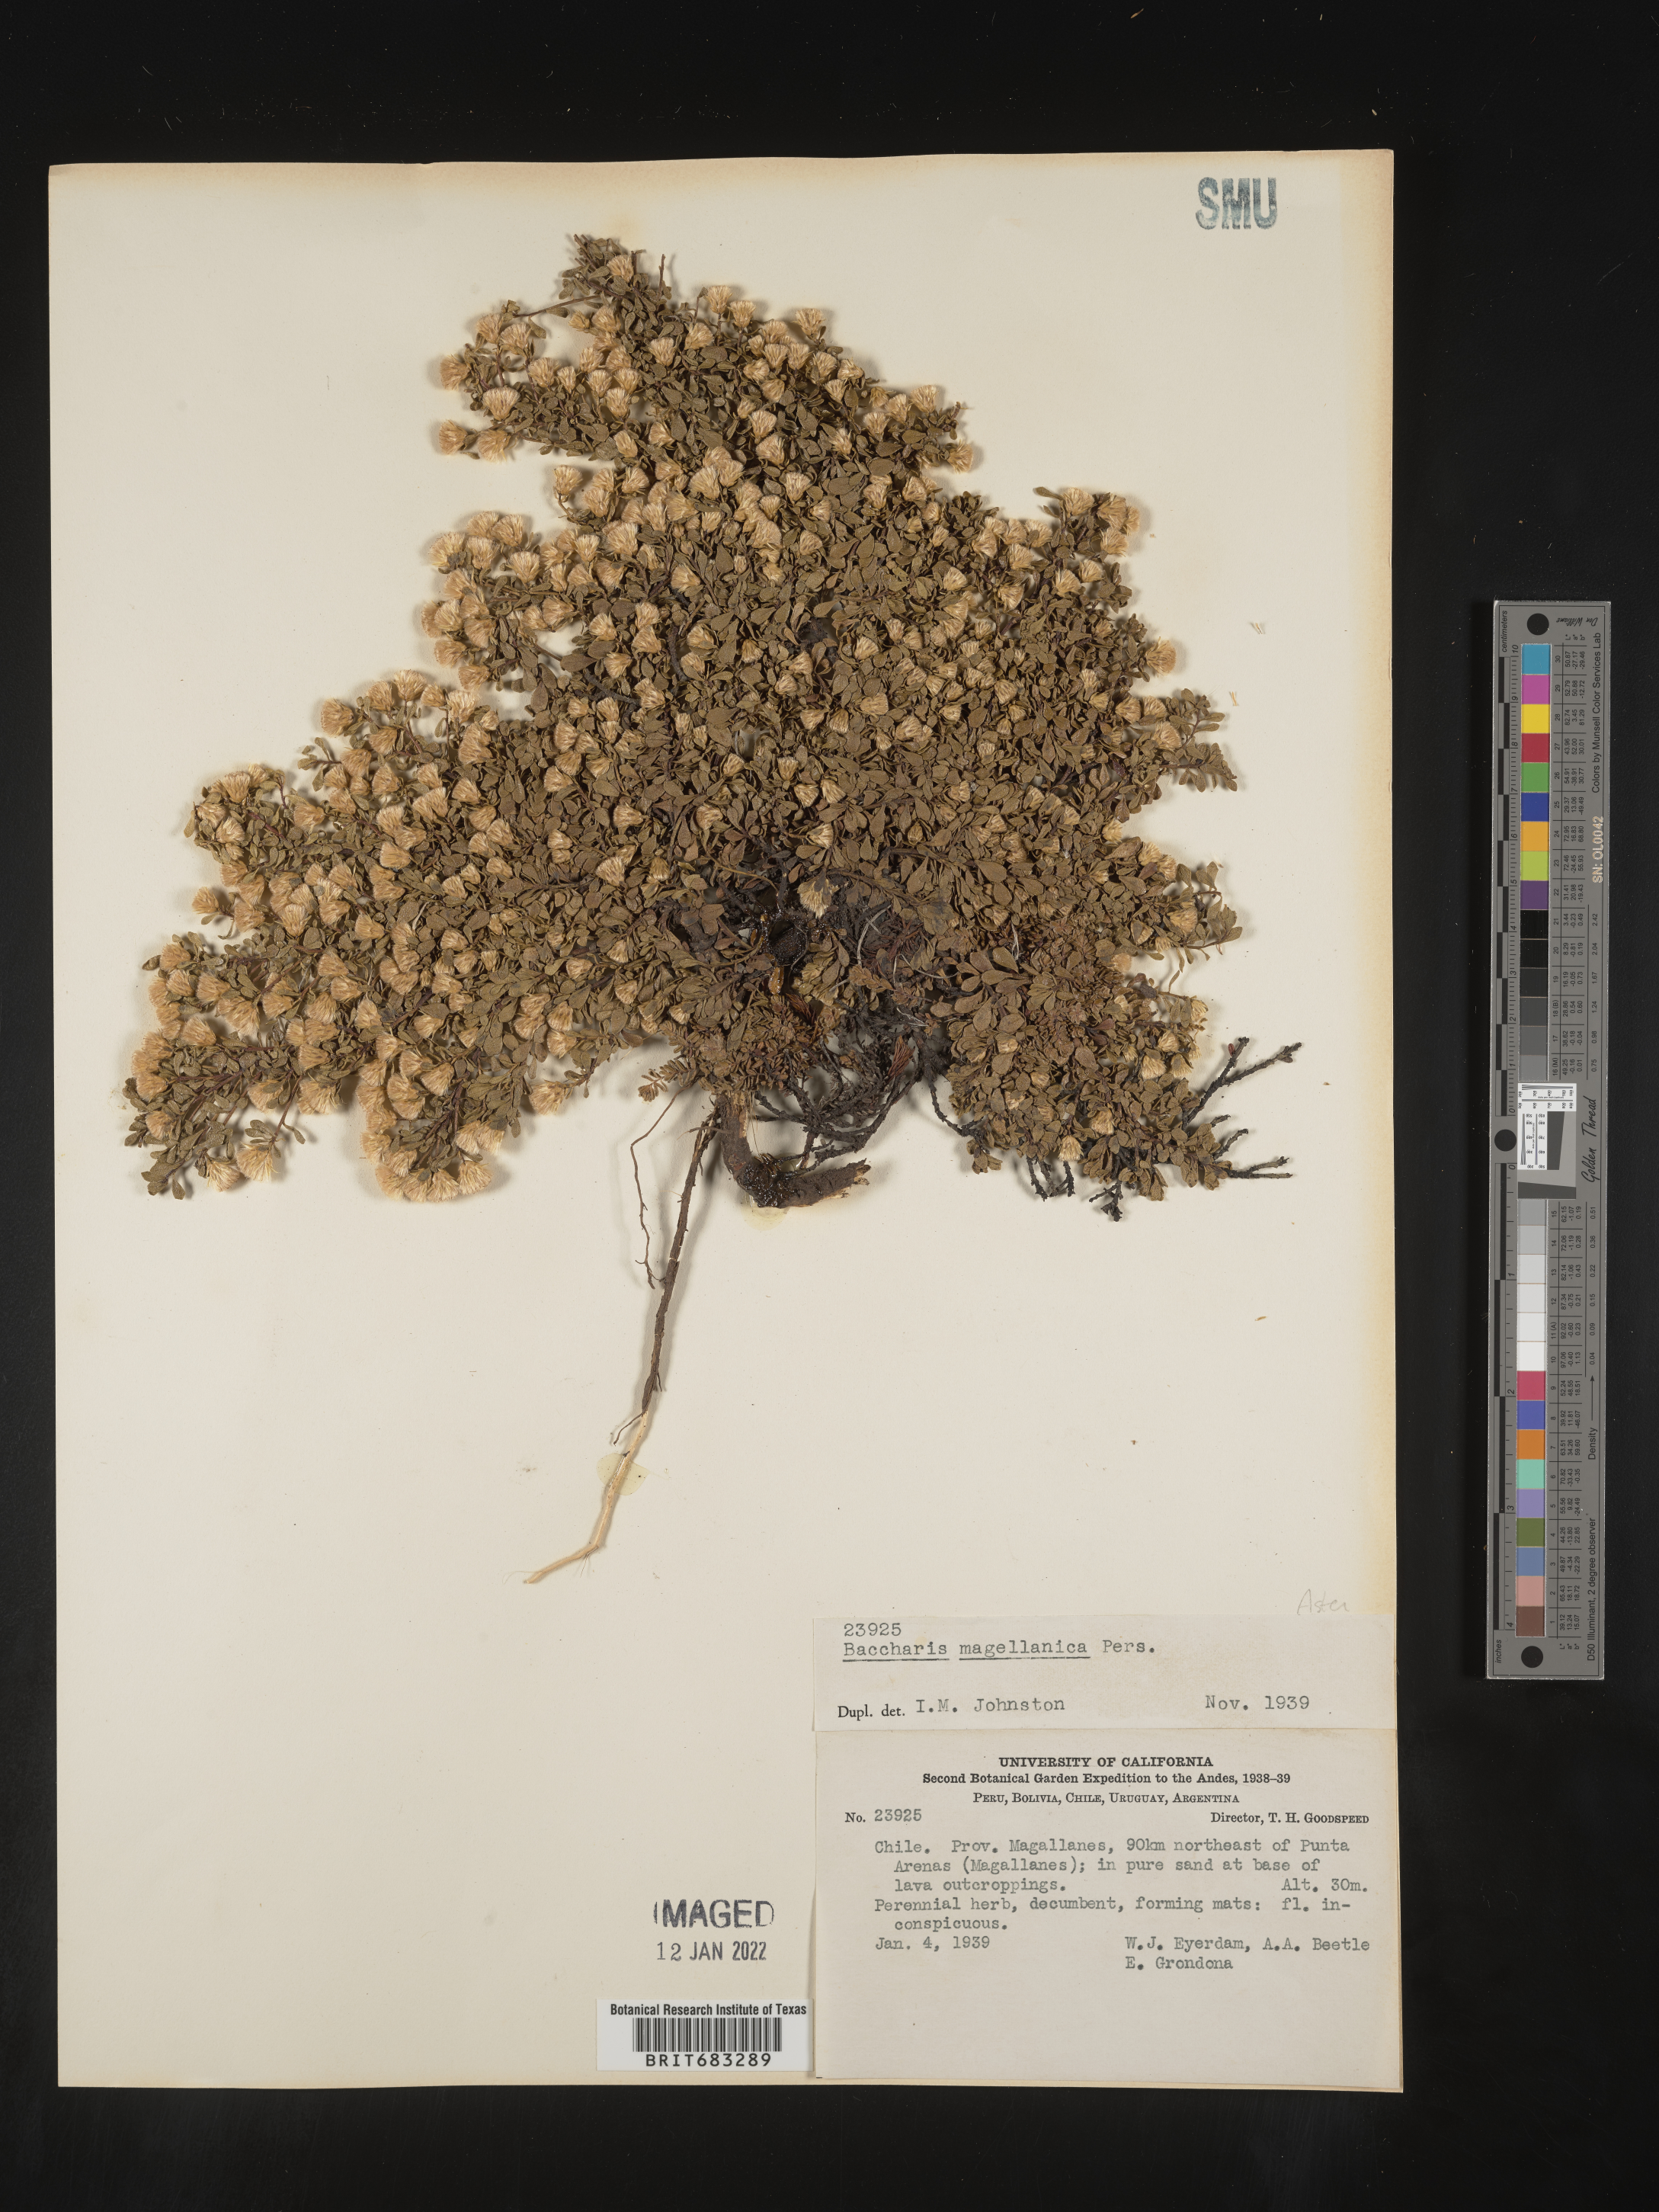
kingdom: Plantae
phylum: Tracheophyta
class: Magnoliopsida
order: Asterales
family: Asteraceae
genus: Baccharis
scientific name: Baccharis
